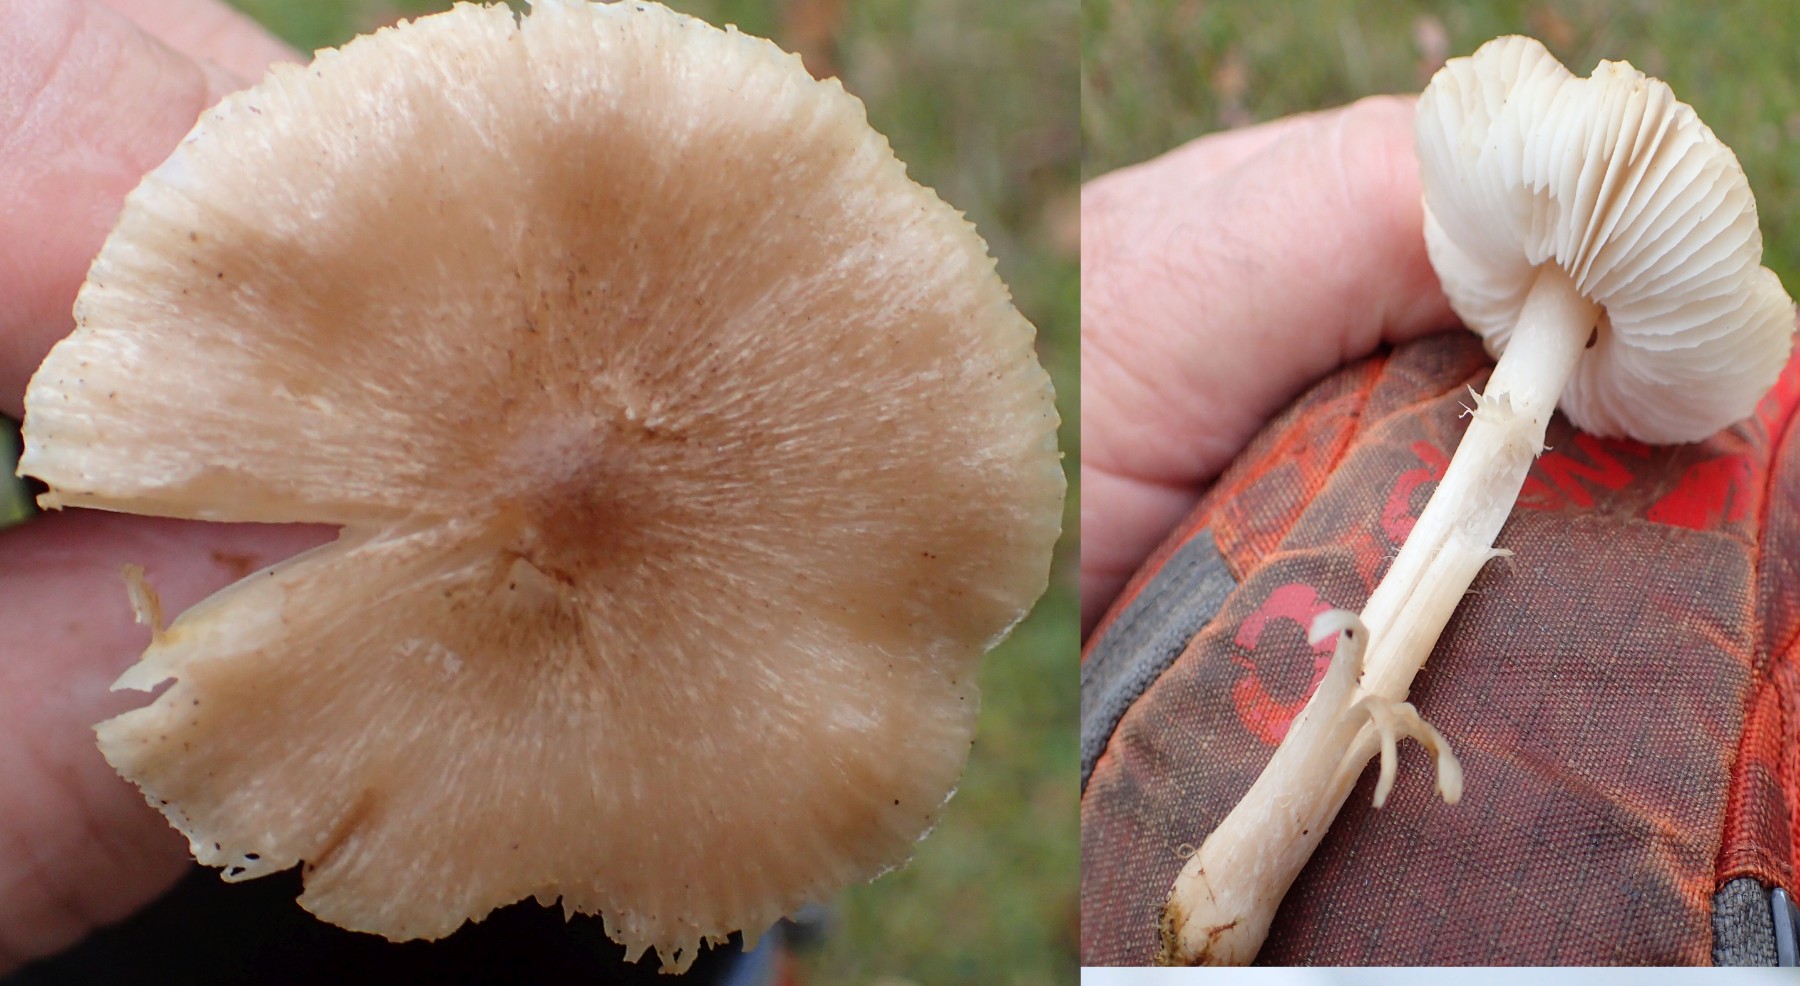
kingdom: Fungi
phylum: Basidiomycota
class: Agaricomycetes
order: Agaricales
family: Tricholomataceae
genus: Tricholoma
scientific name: Tricholoma
